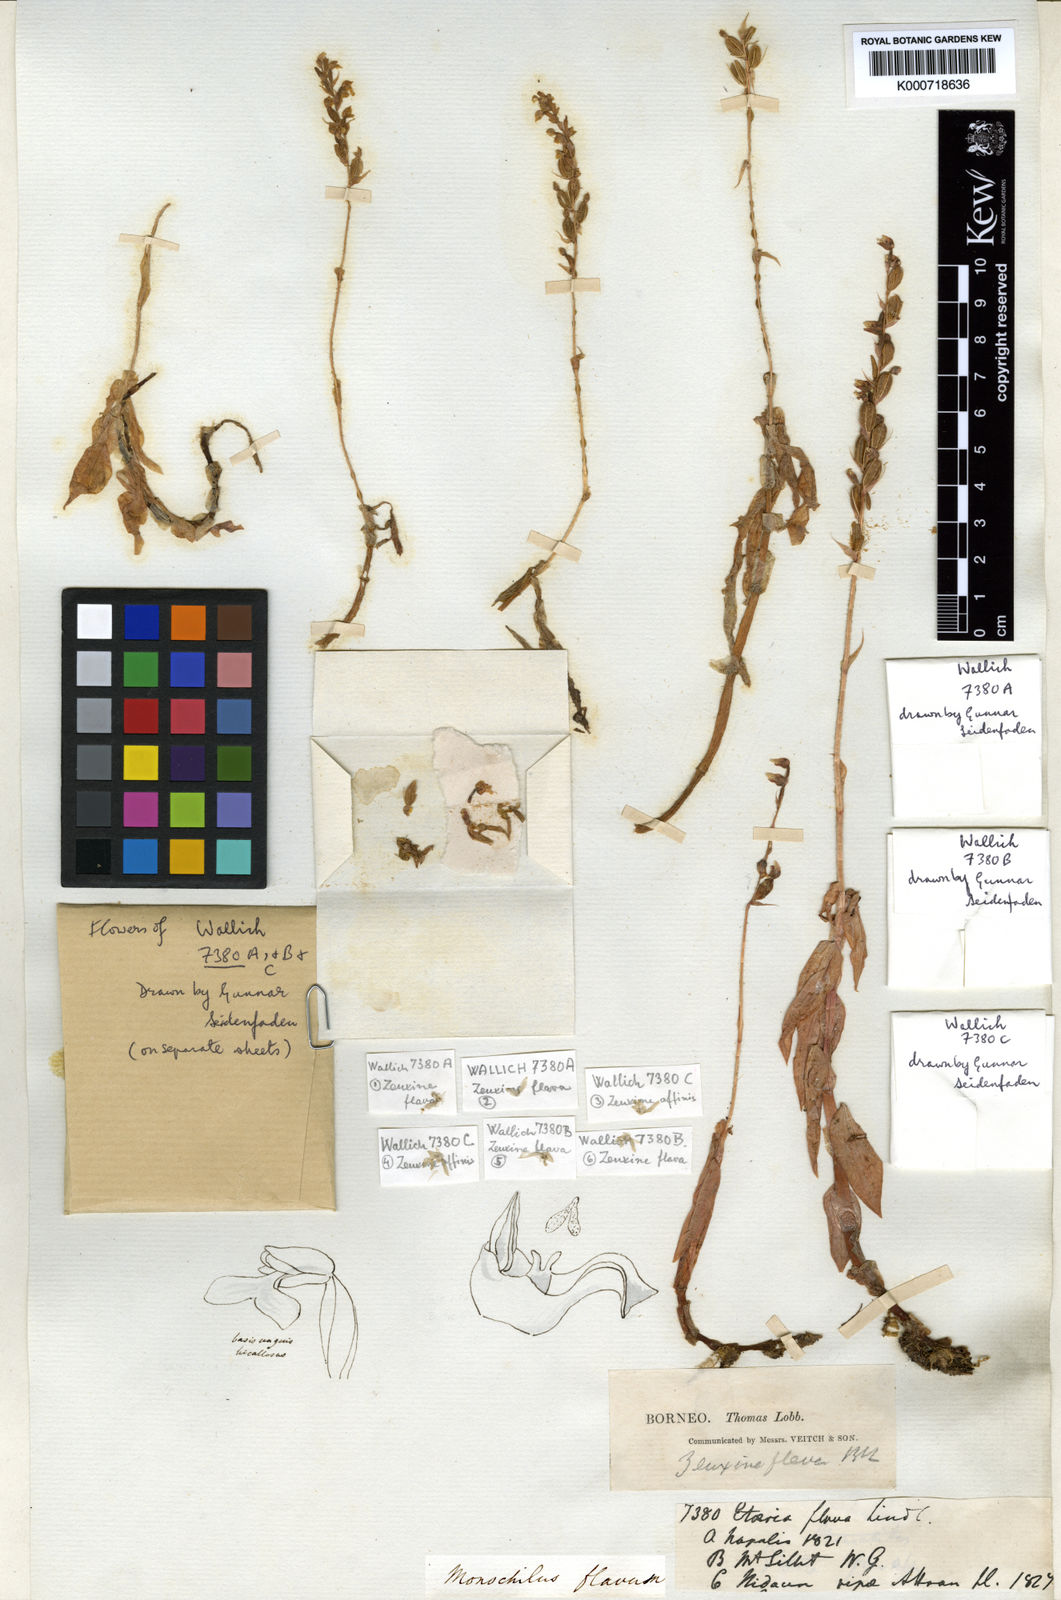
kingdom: Plantae
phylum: Tracheophyta
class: Liliopsida
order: Asparagales
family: Orchidaceae
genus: Zeuxine
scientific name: Zeuxine flava
